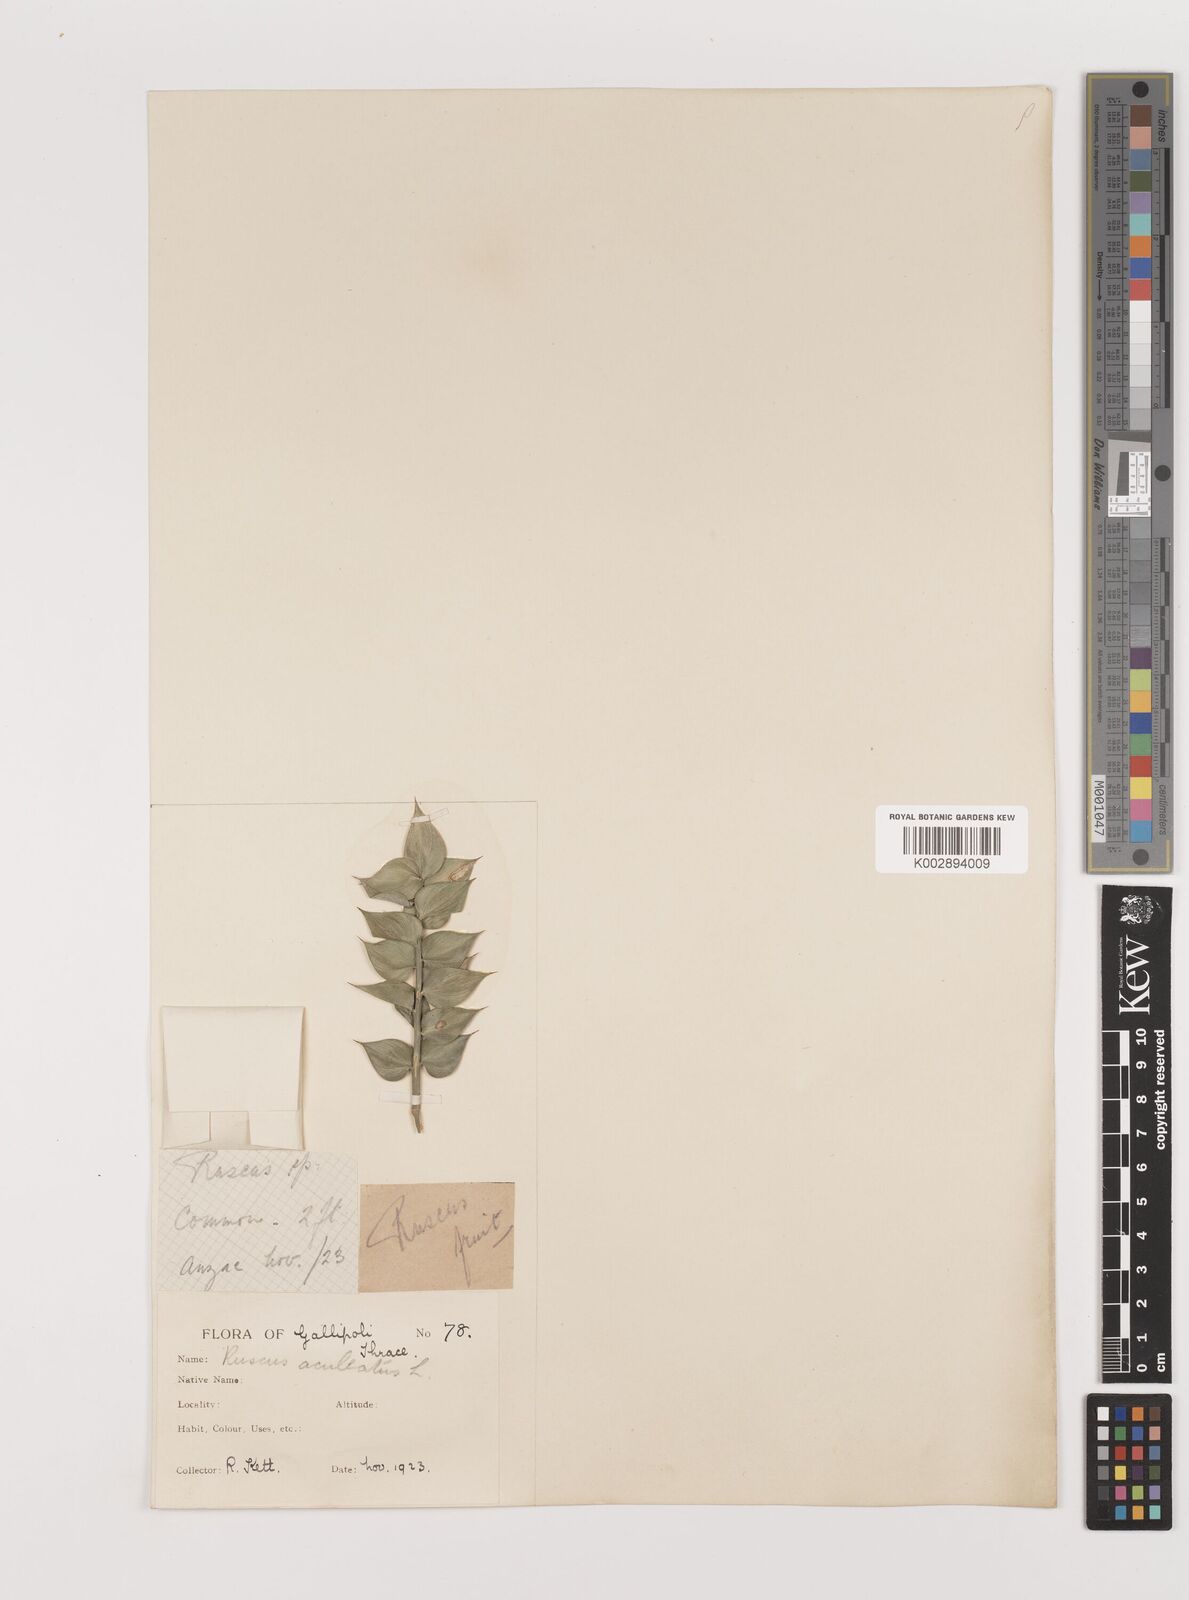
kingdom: Plantae
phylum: Tracheophyta
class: Liliopsida
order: Asparagales
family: Asparagaceae
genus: Ruscus
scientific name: Ruscus aculeatus
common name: Butcher's-broom
